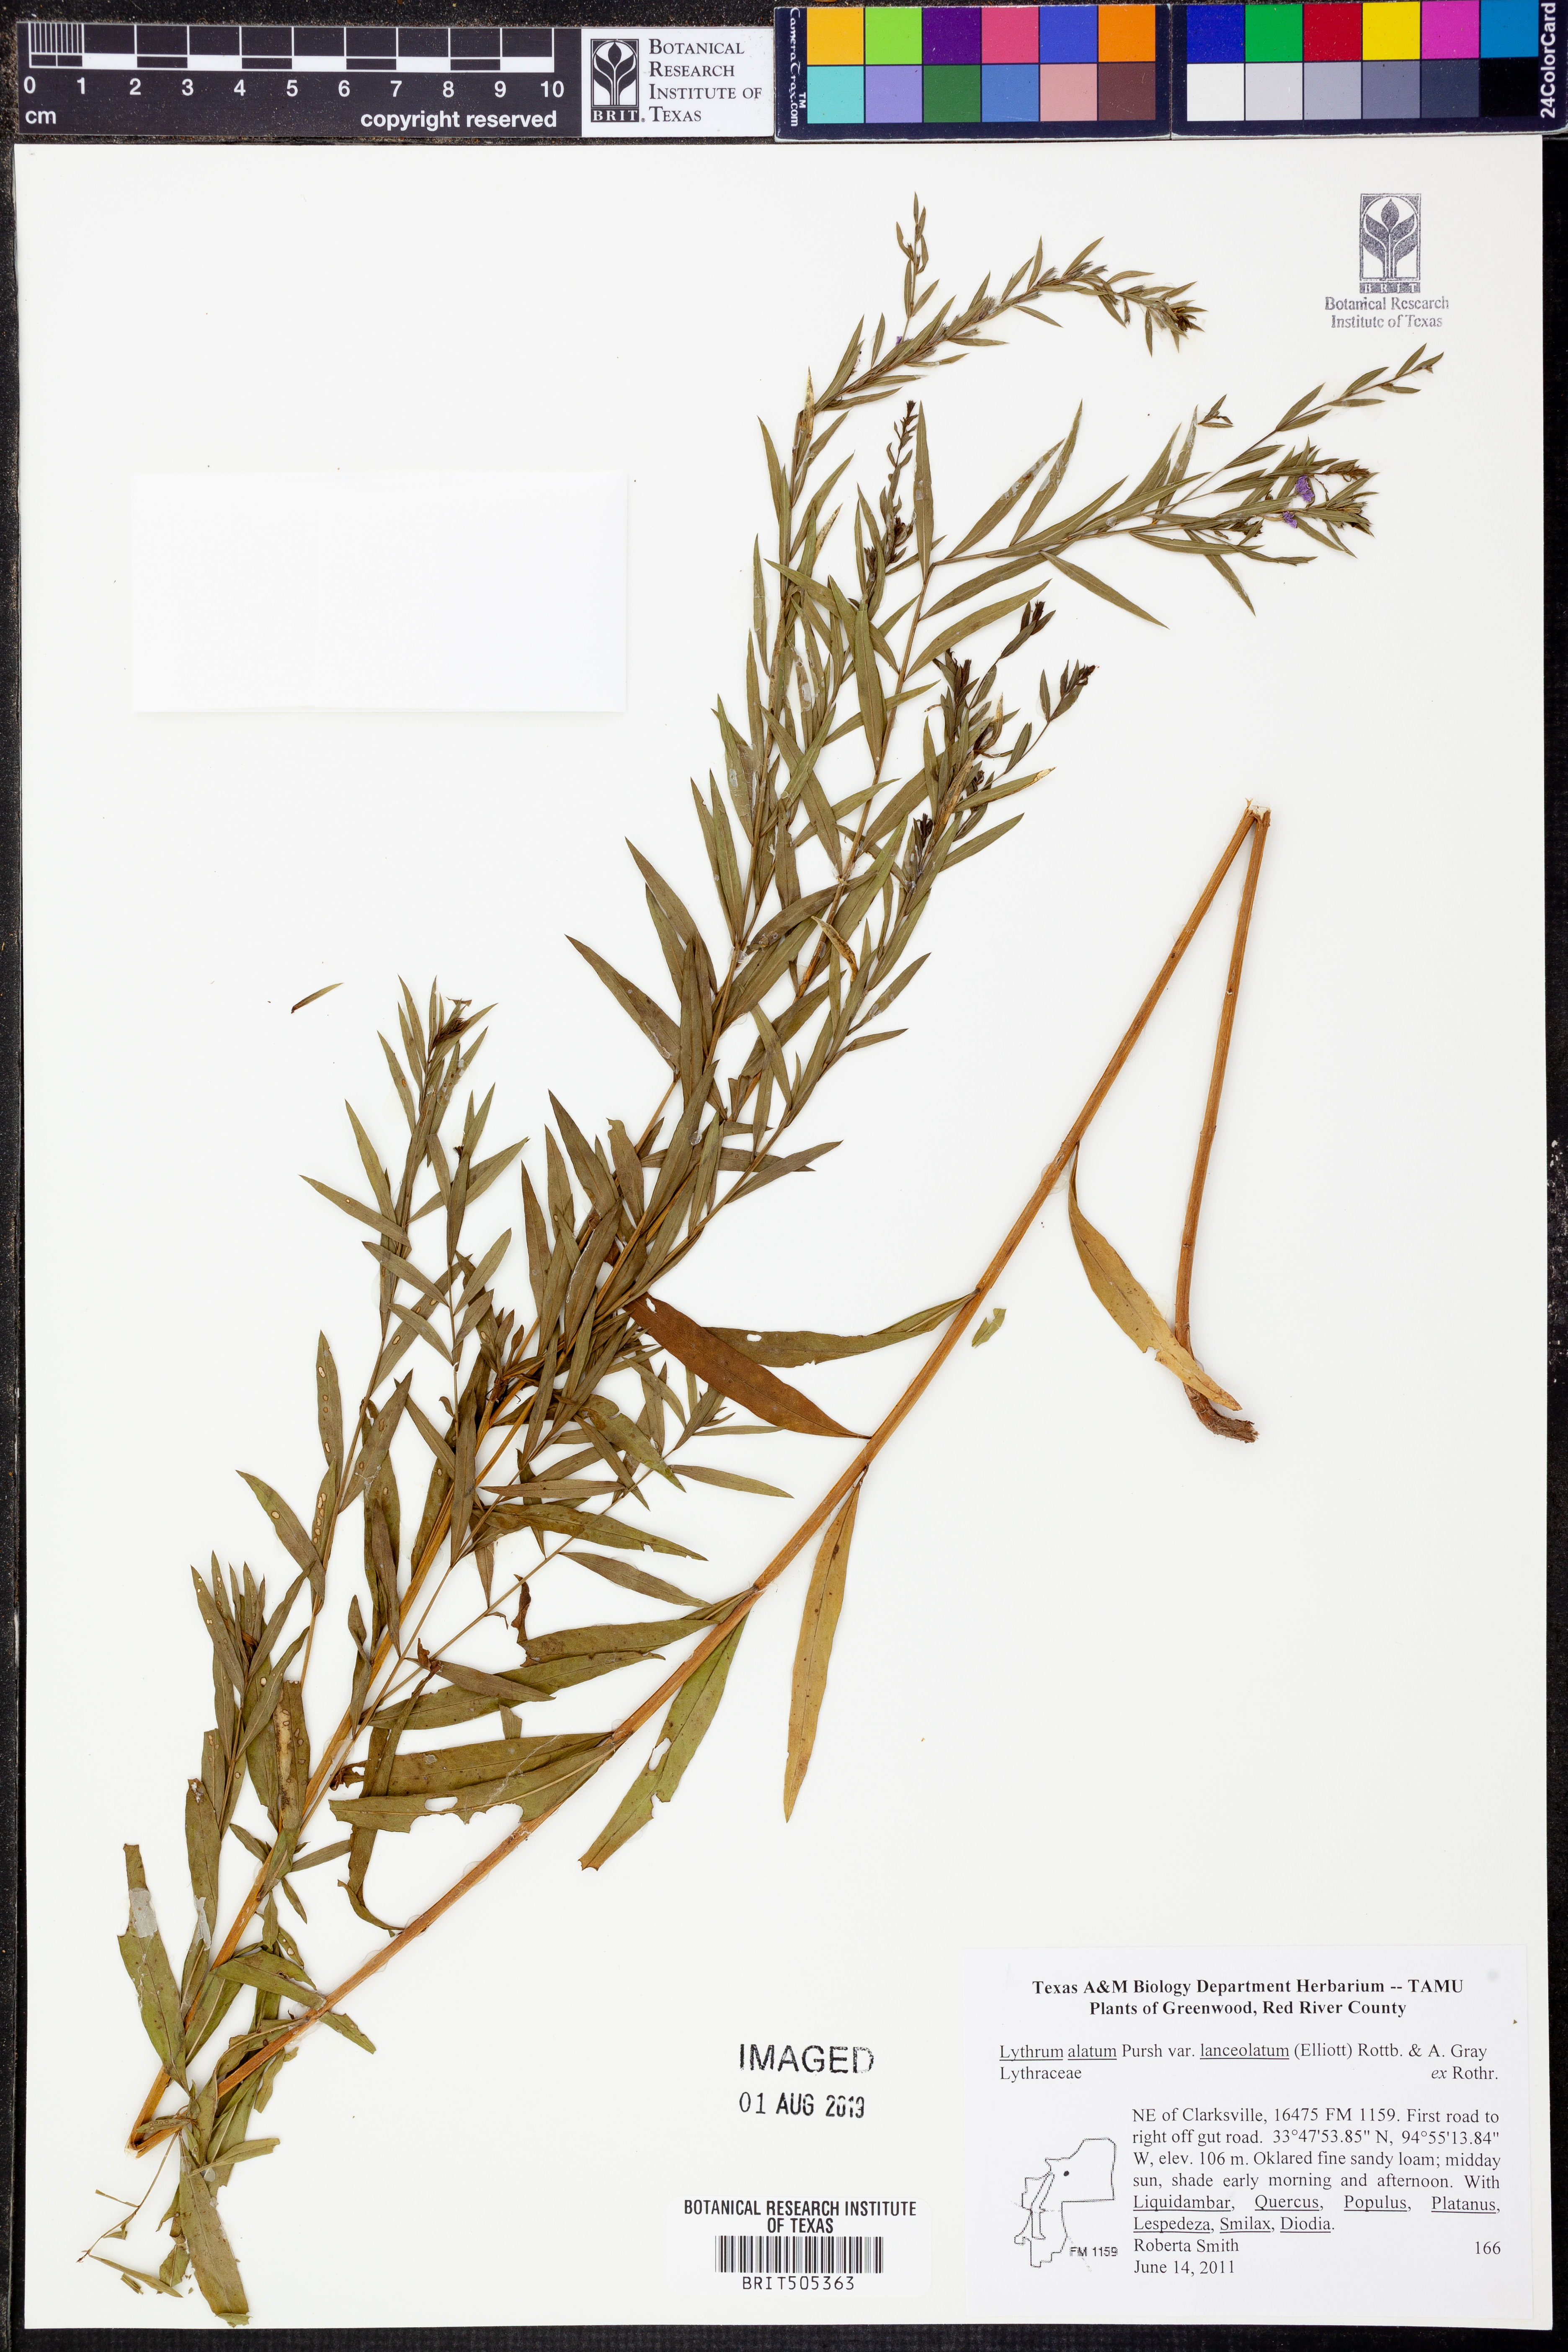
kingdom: Plantae
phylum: Tracheophyta
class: Magnoliopsida
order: Myrtales
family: Lythraceae
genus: Lythrum
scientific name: Lythrum alatum
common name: Winged loosestrife
